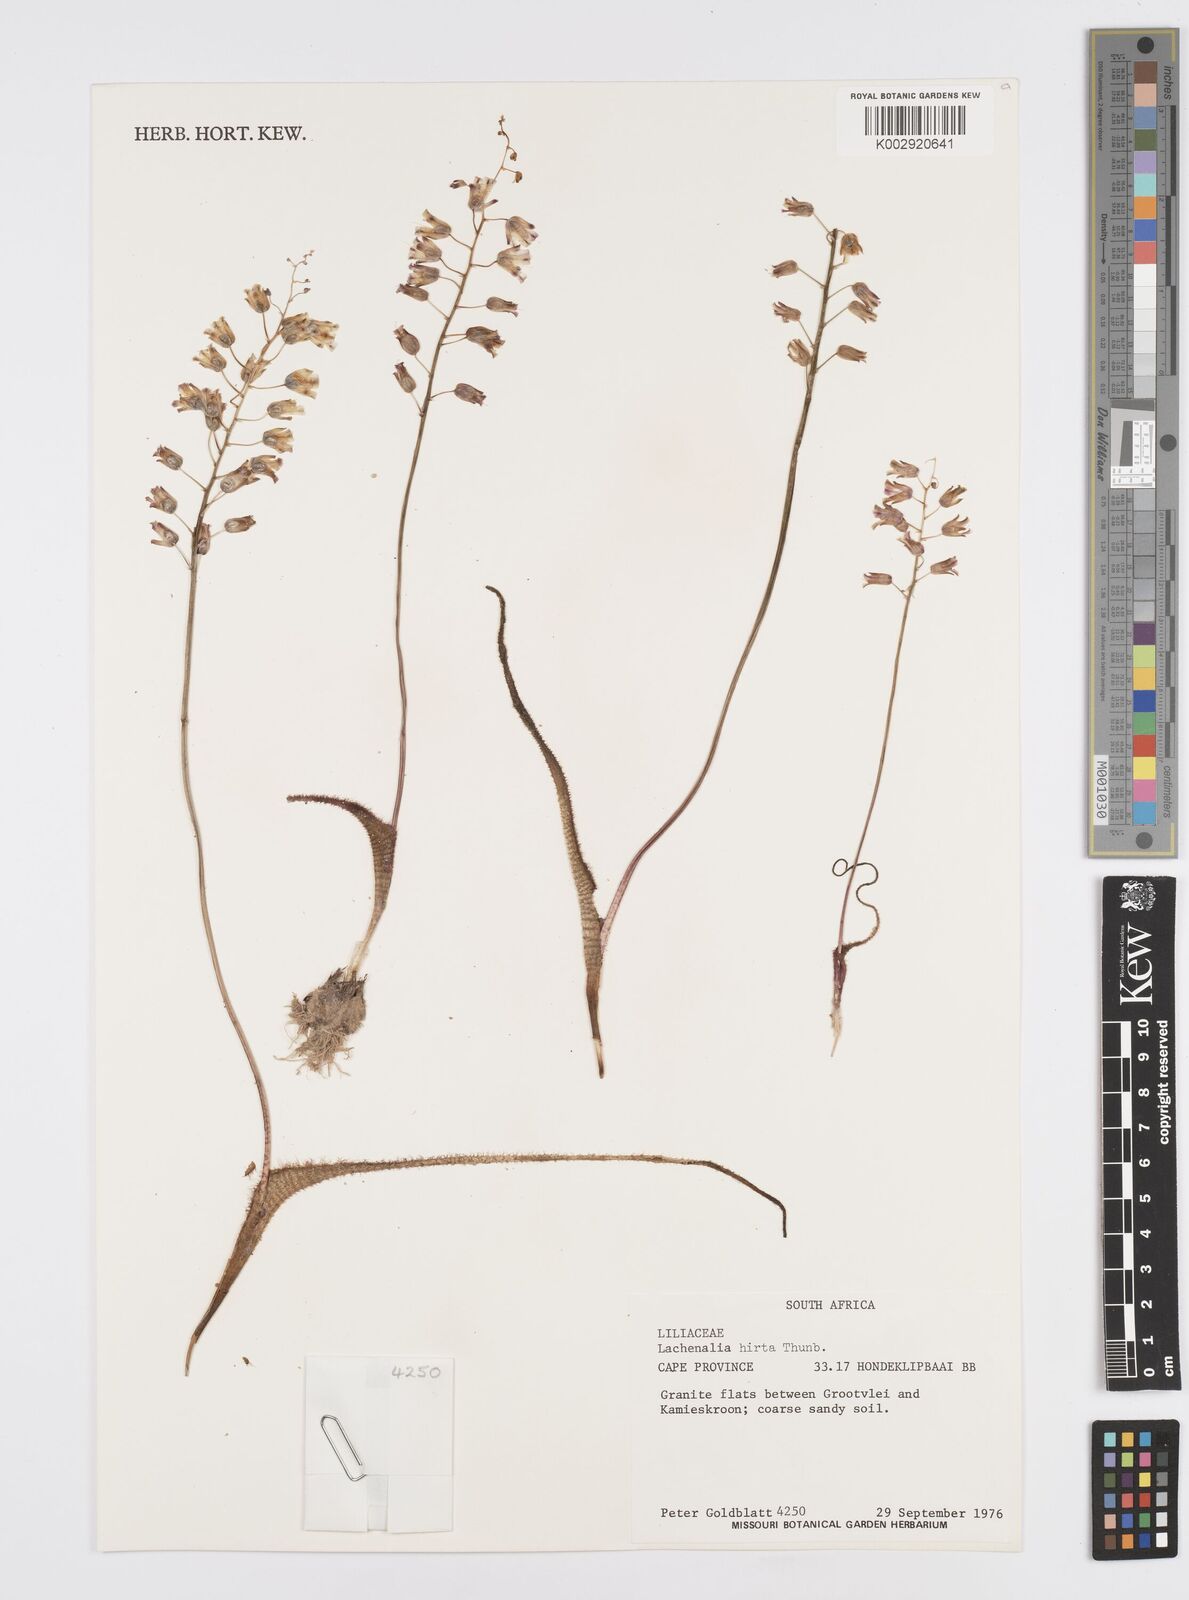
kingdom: Plantae
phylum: Tracheophyta
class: Liliopsida
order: Asparagales
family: Asparagaceae
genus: Lachenalia
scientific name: Lachenalia hirta
